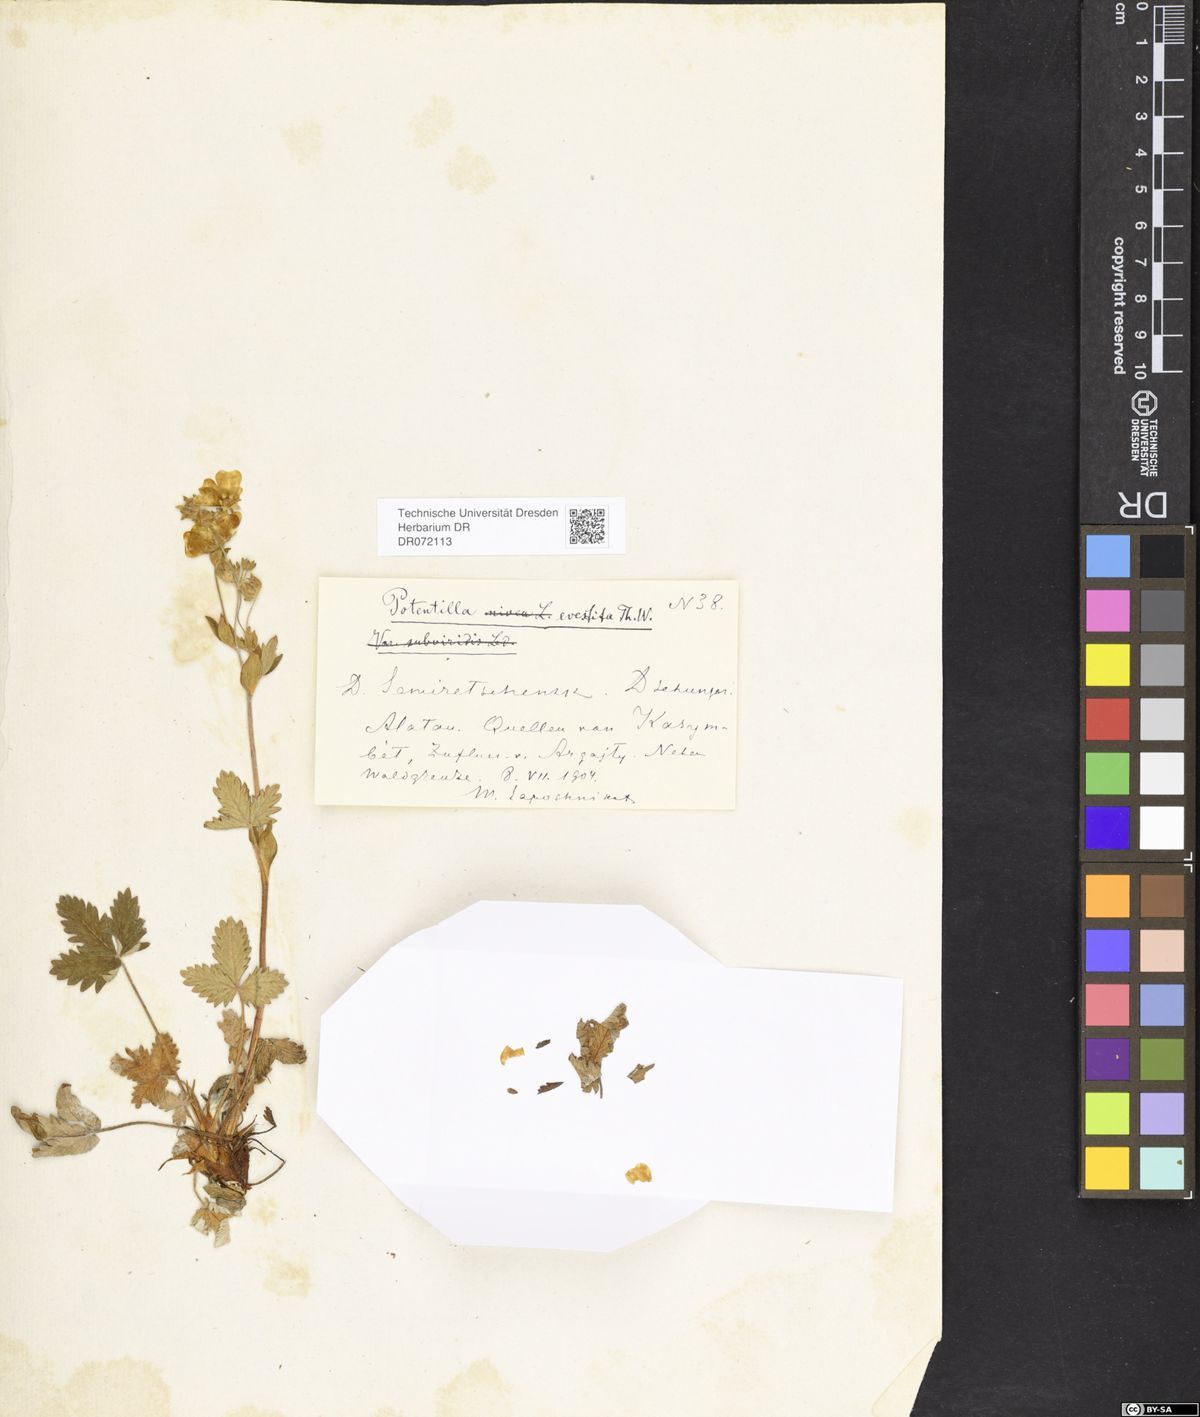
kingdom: Plantae
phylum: Tracheophyta
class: Magnoliopsida
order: Rosales
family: Rosaceae
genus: Potentilla
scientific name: Potentilla evestita
